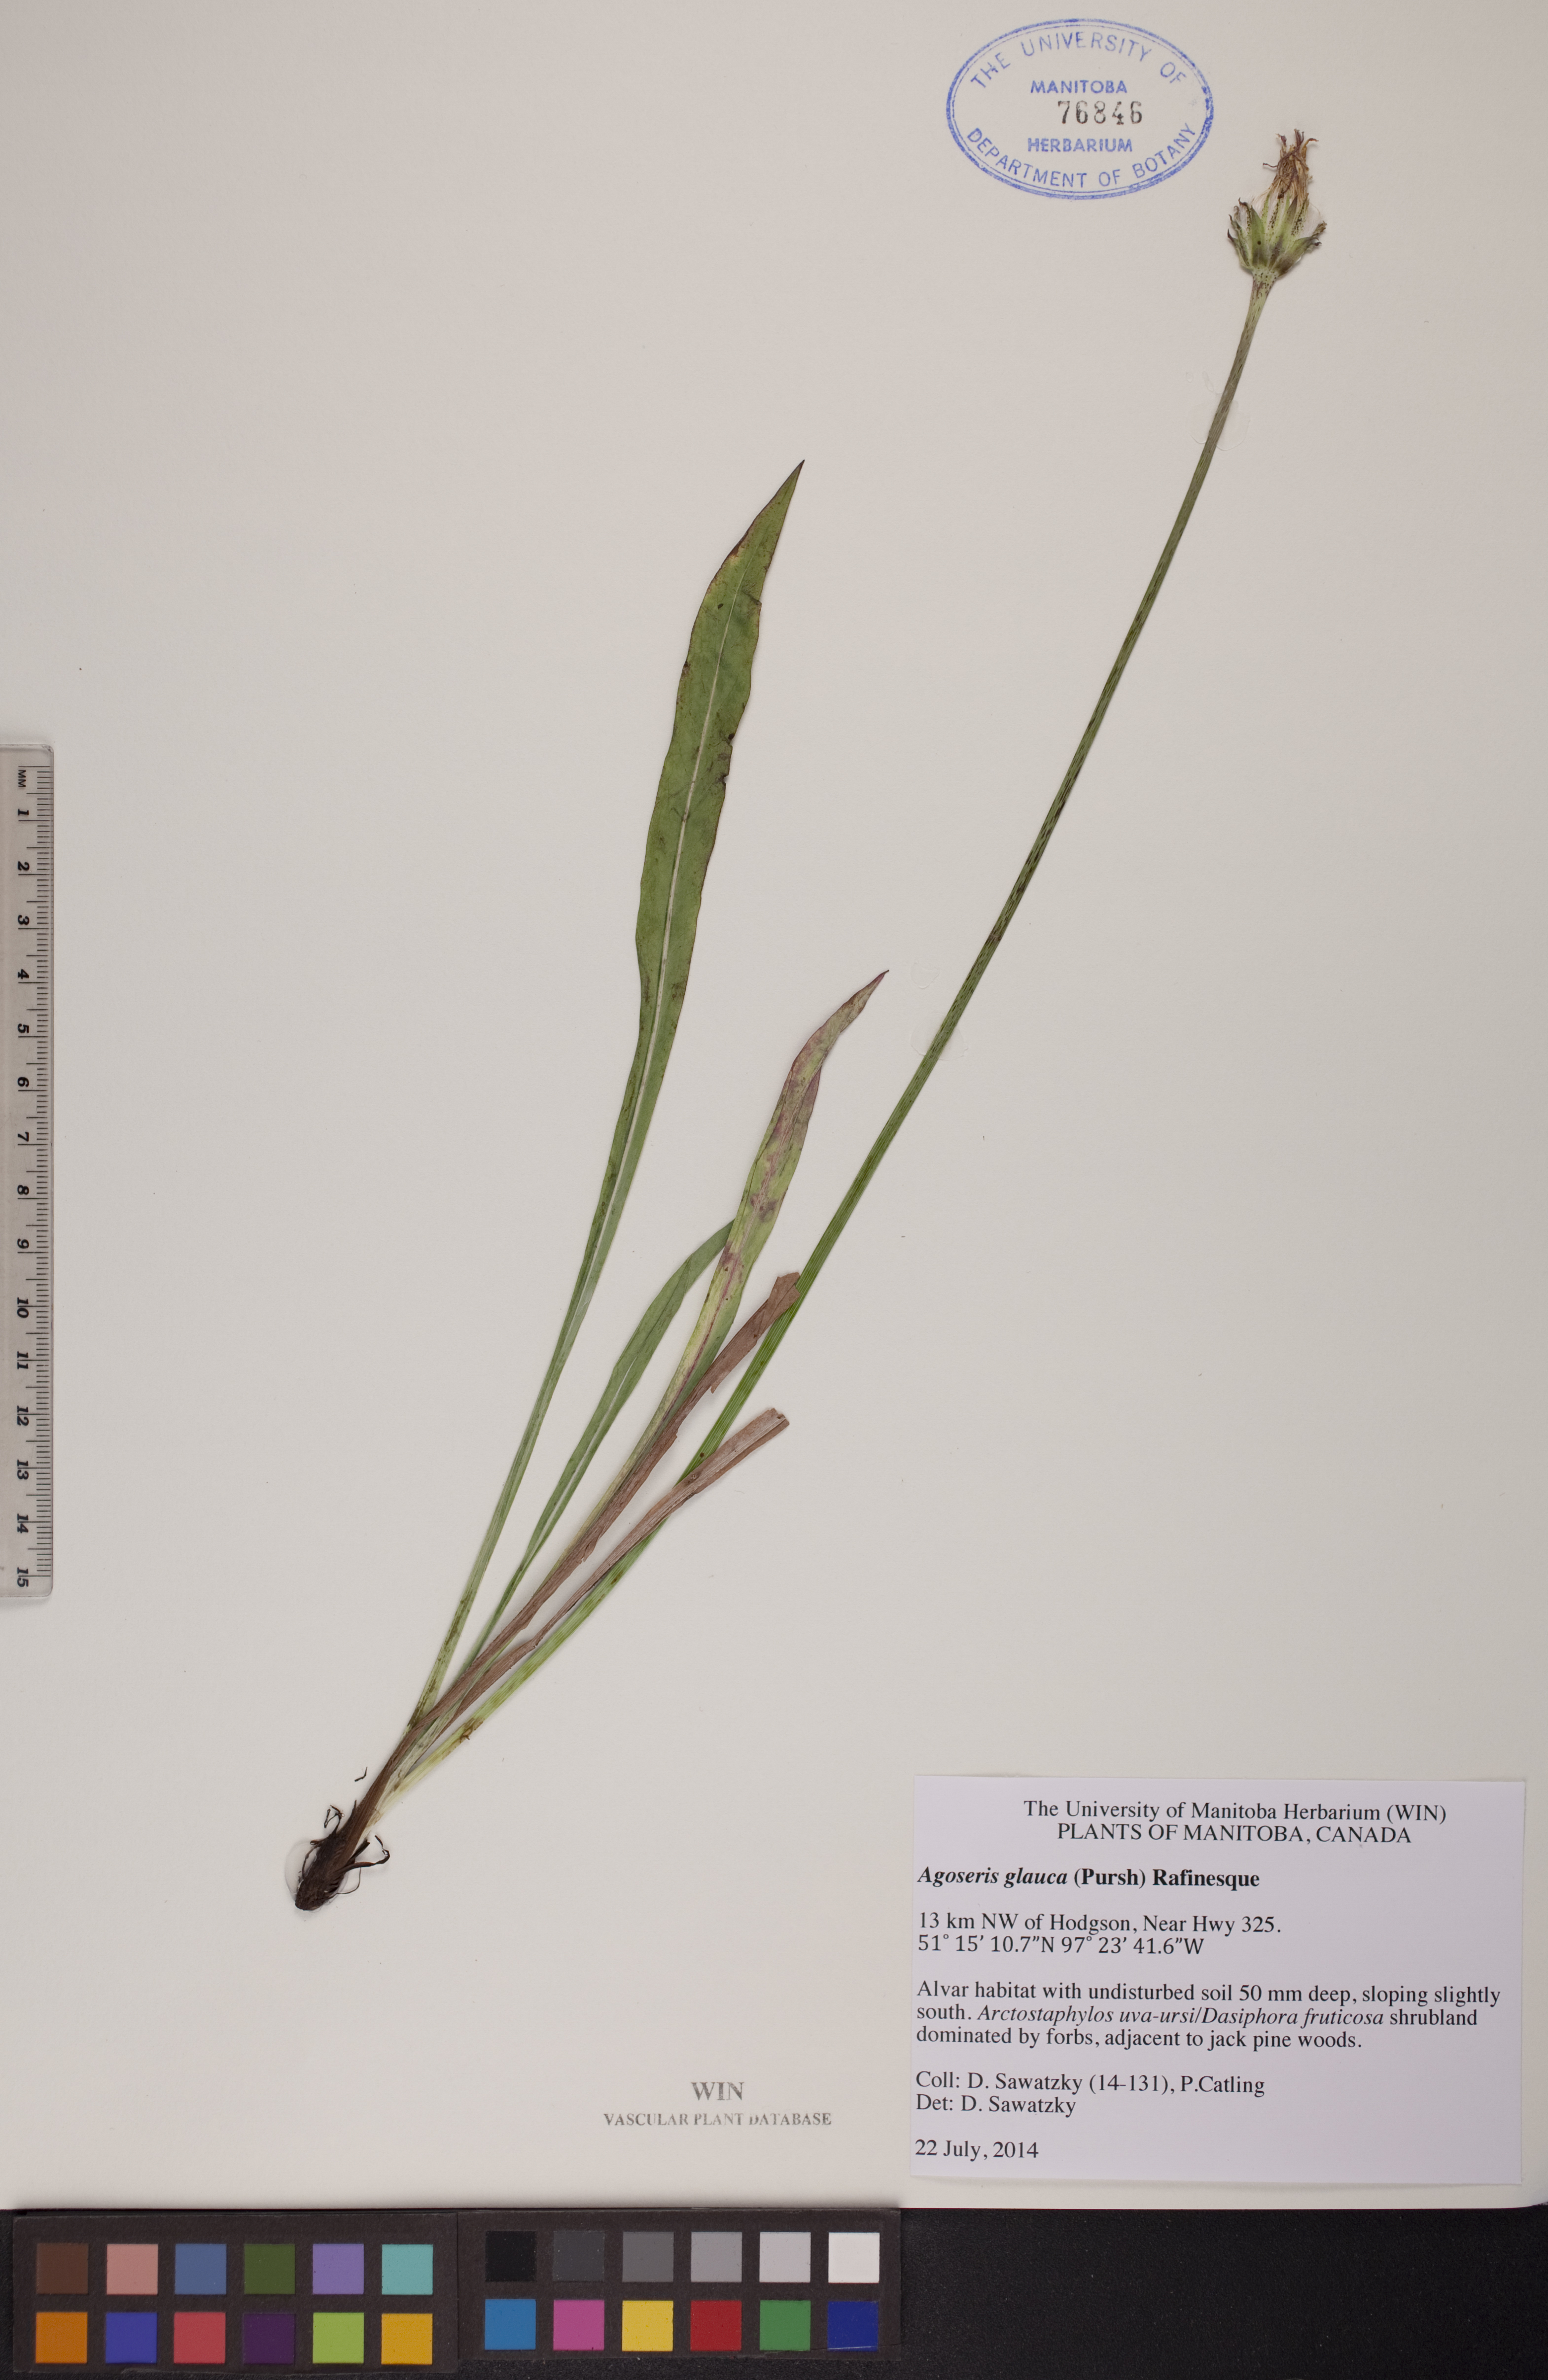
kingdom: Plantae
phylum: Tracheophyta
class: Magnoliopsida
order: Asterales
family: Asteraceae
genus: Agoseris
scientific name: Agoseris glauca
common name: Prairie agoseris
